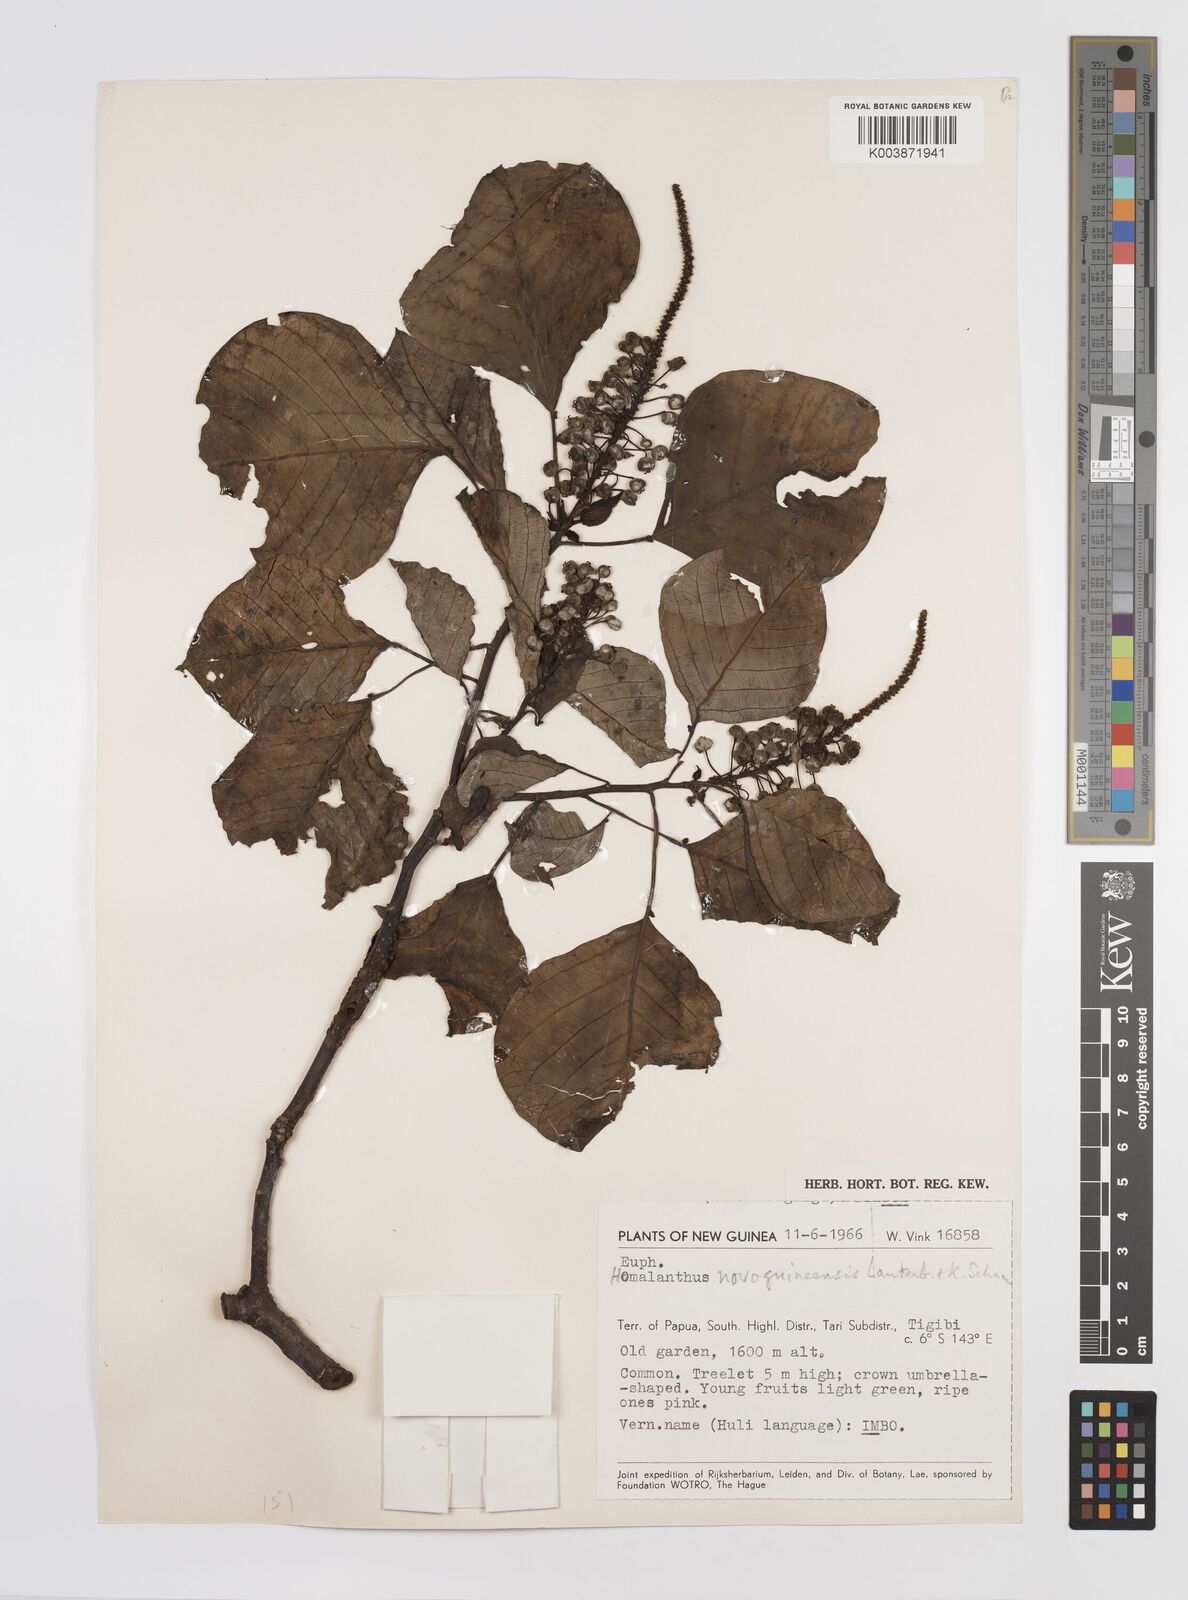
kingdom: Plantae
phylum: Tracheophyta
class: Magnoliopsida
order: Malpighiales
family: Euphorbiaceae
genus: Homalanthus
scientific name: Homalanthus novoguineensis
